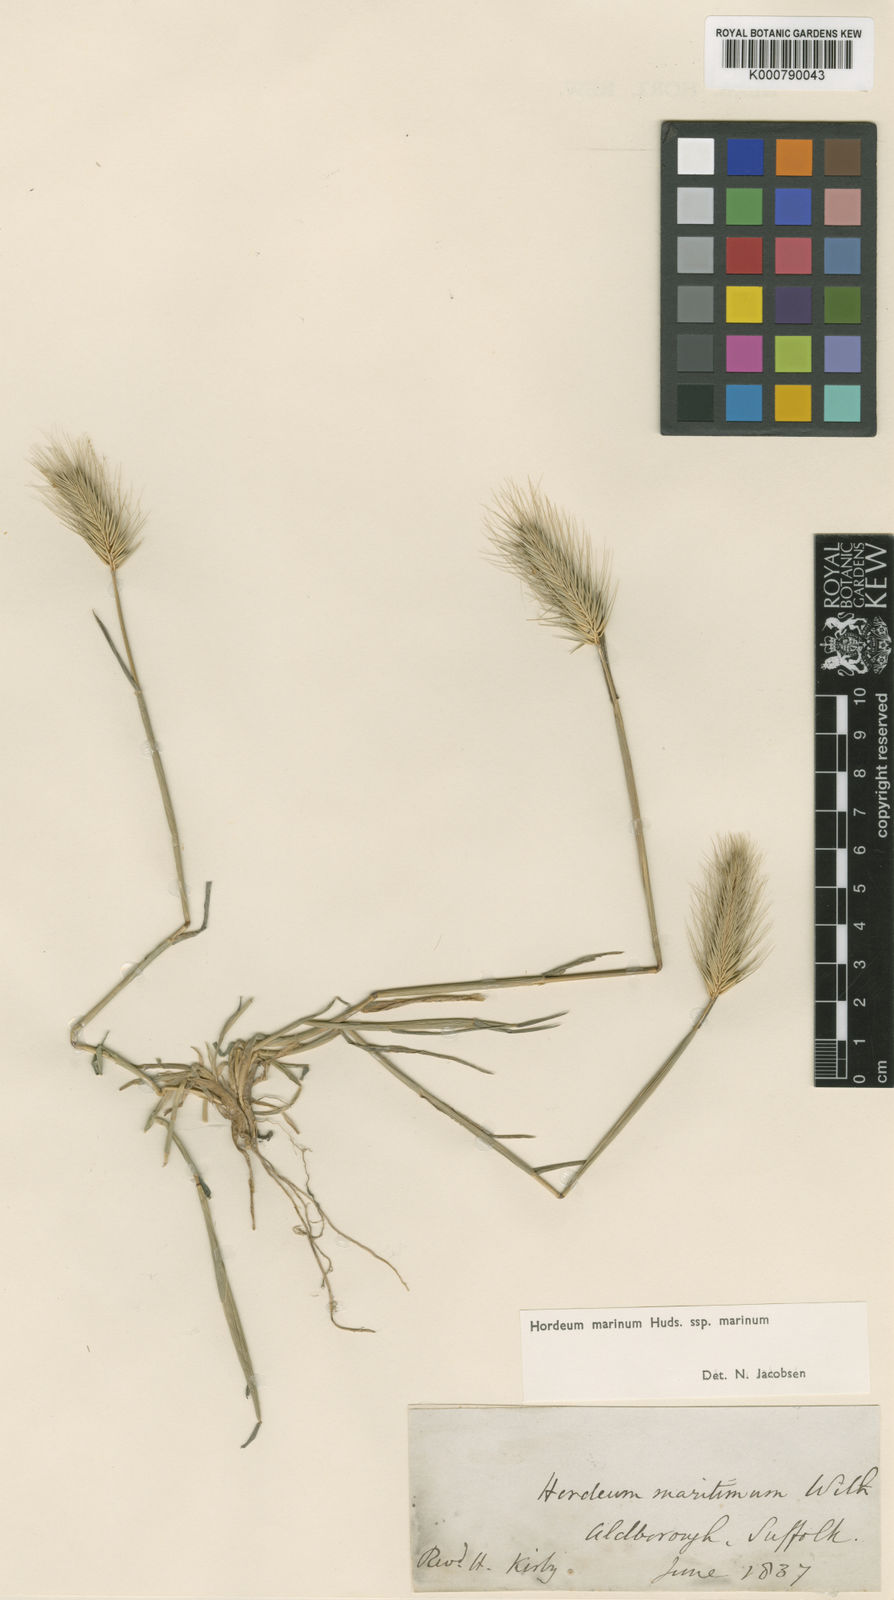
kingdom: Plantae
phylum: Tracheophyta
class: Liliopsida
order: Poales
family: Poaceae
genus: Hordeum
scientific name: Hordeum marinum
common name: Sea barley
